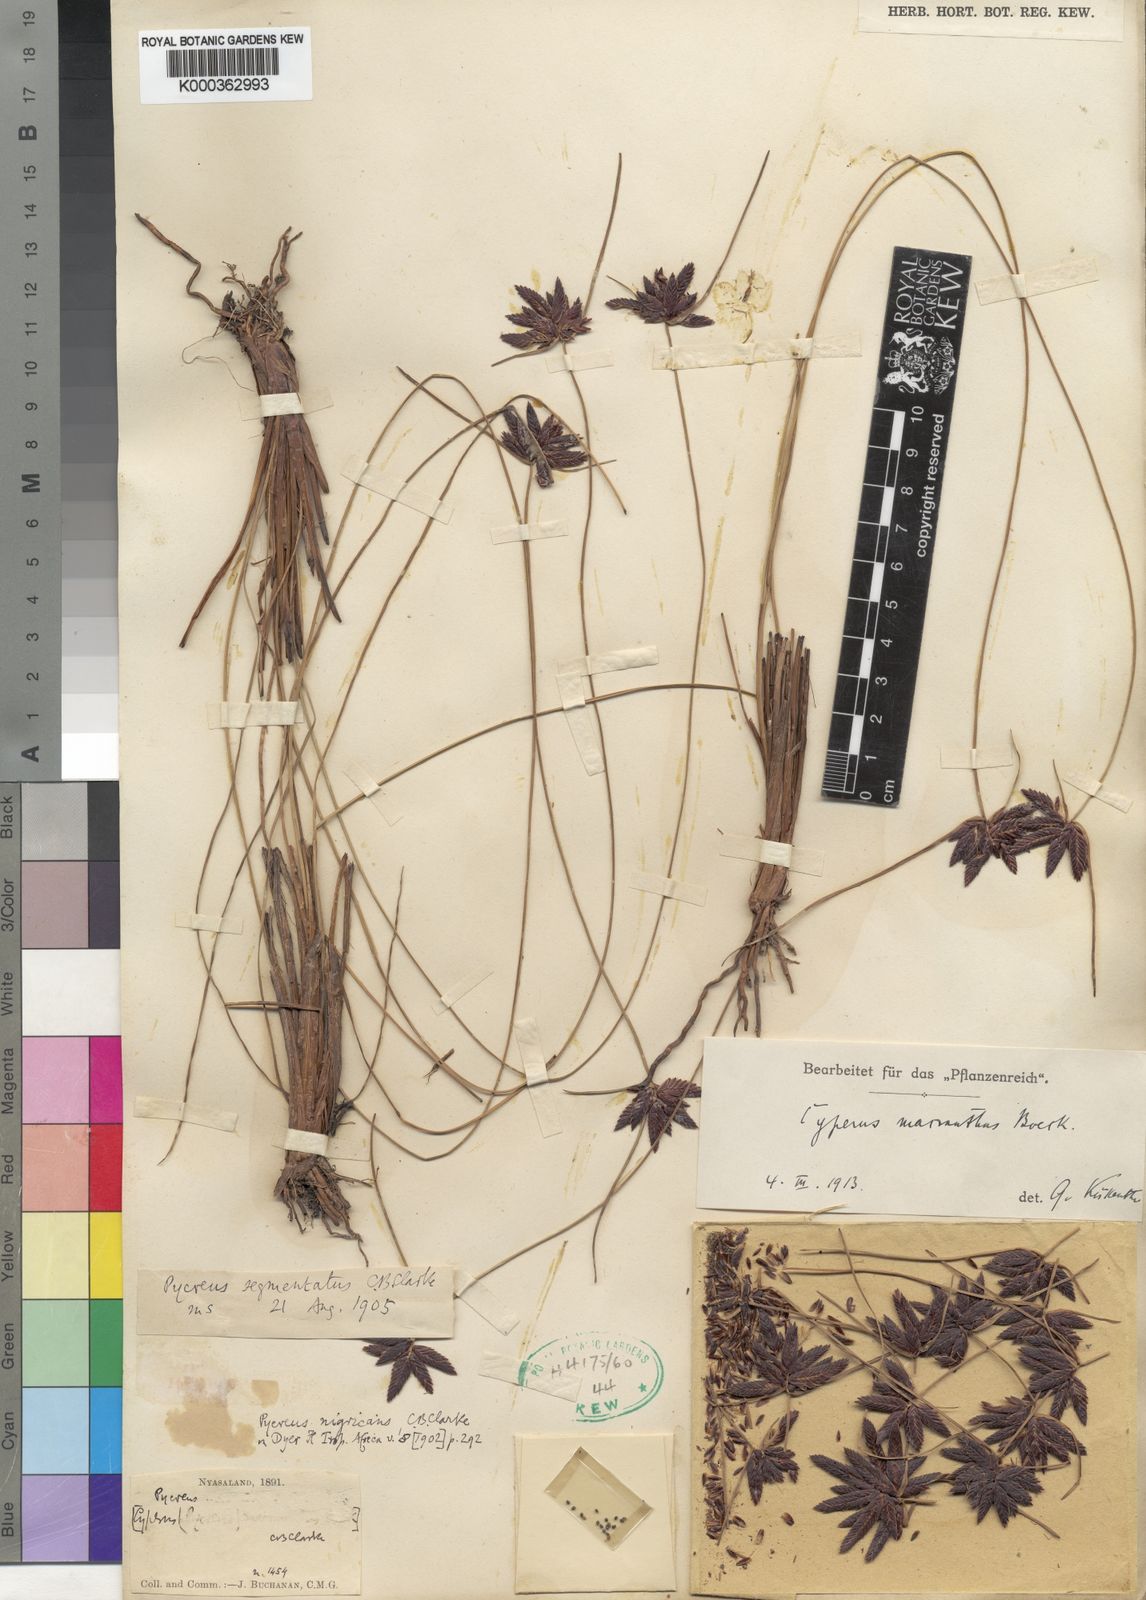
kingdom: Plantae
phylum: Tracheophyta
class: Liliopsida
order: Poales
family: Cyperaceae
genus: Cyperus
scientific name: Cyperus nigricans
